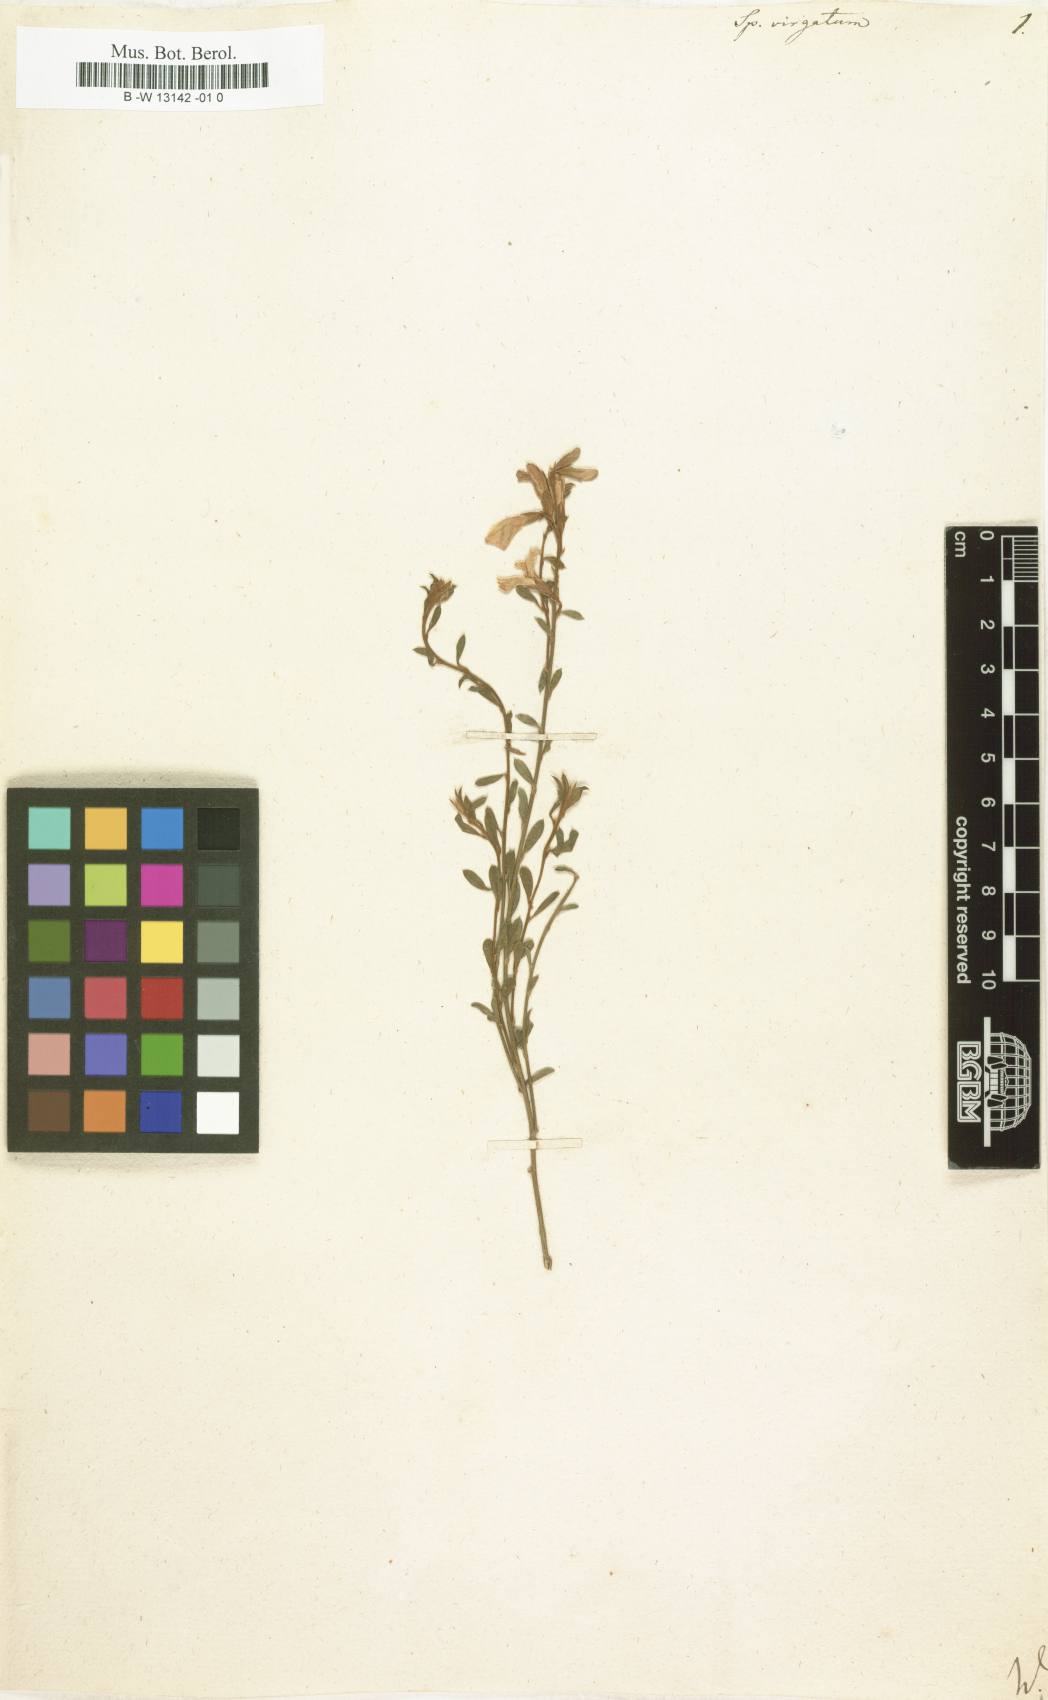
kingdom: Plantae
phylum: Tracheophyta
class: Magnoliopsida
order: Fabales
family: Fabaceae
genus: Genista
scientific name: Genista tenera
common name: Madeira broom
